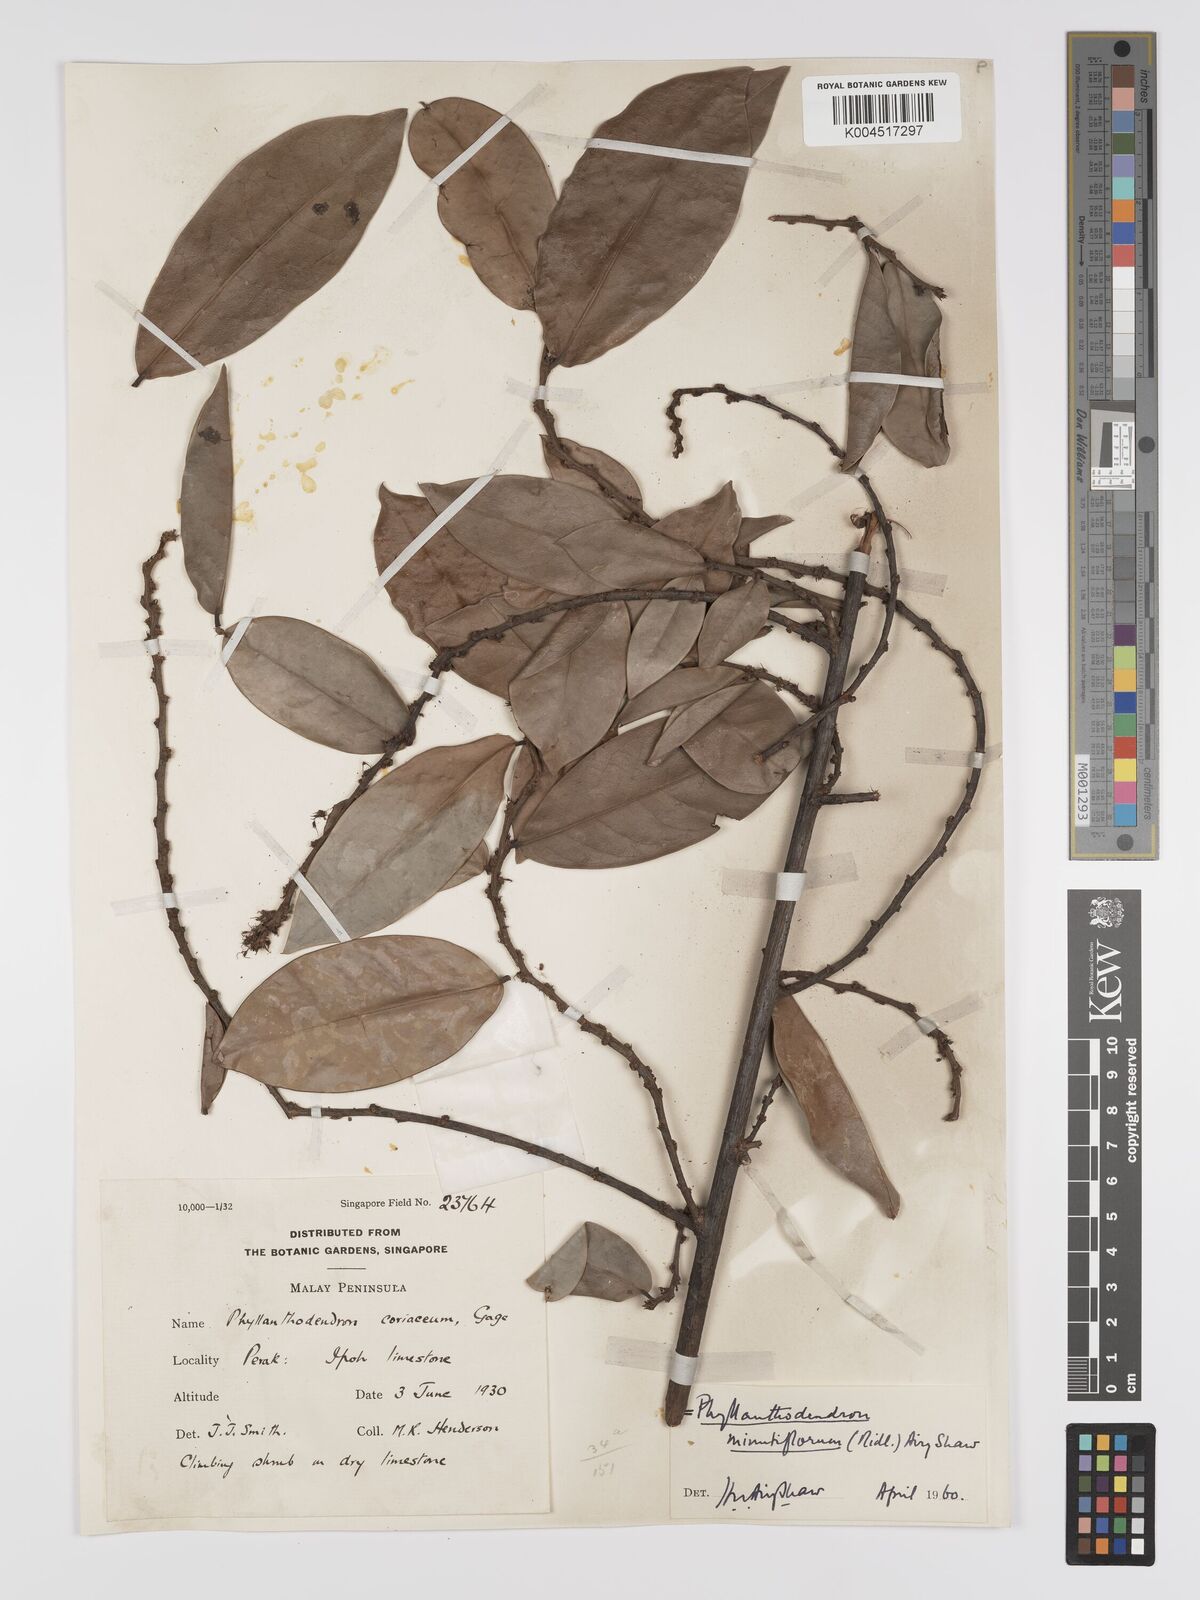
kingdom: Plantae
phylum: Tracheophyta
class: Magnoliopsida
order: Malpighiales
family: Phyllanthaceae
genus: Phyllanthus
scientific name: Phyllanthus ridleyanus
